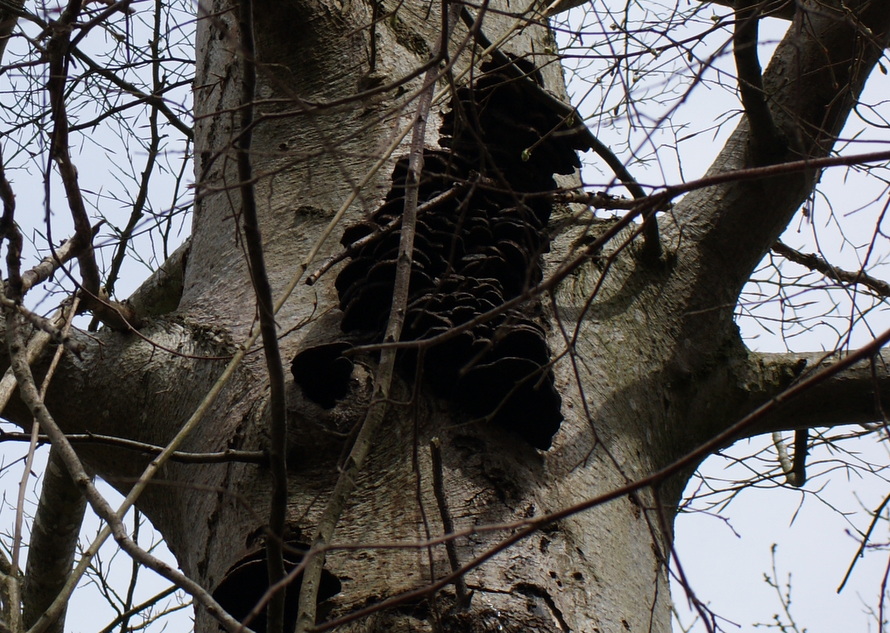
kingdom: Fungi
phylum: Basidiomycota
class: Agaricomycetes
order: Hymenochaetales
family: Hymenochaetaceae
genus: Inonotus
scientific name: Inonotus cuticularis
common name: kroghåret spejlporesvamp
